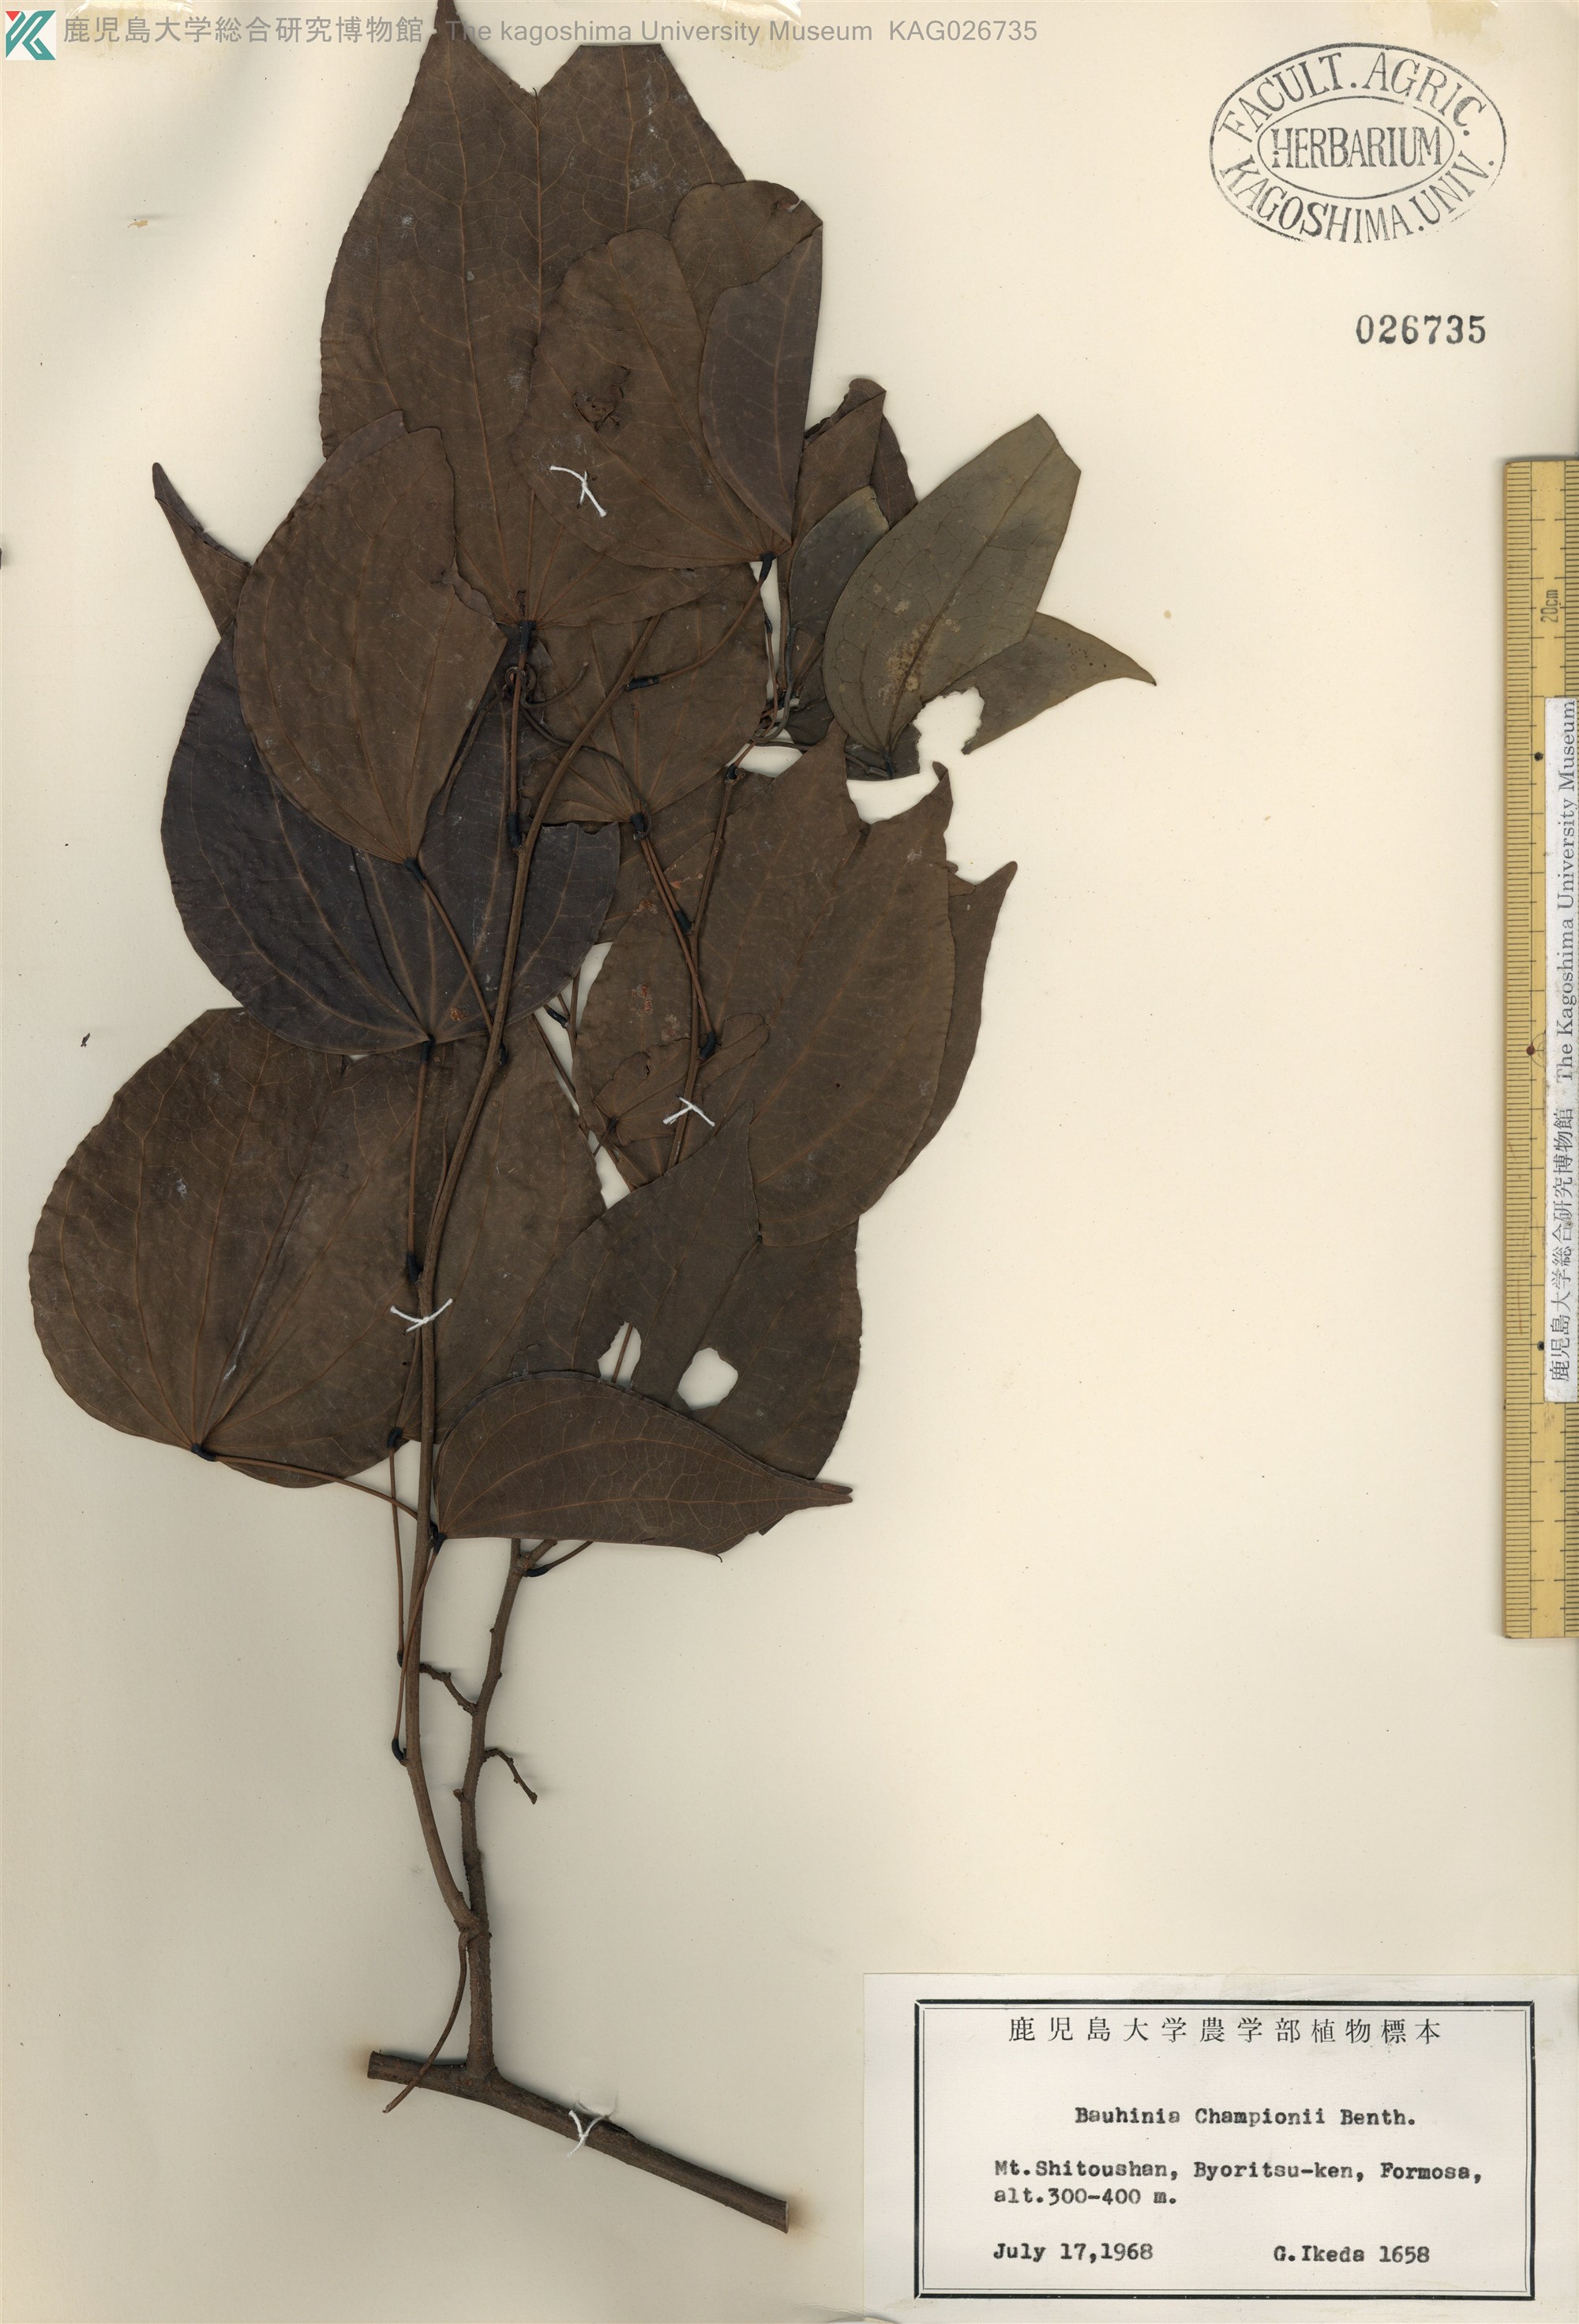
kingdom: Plantae
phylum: Tracheophyta
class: Magnoliopsida
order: Fabales
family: Fabaceae
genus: Phanera
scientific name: Phanera championii
